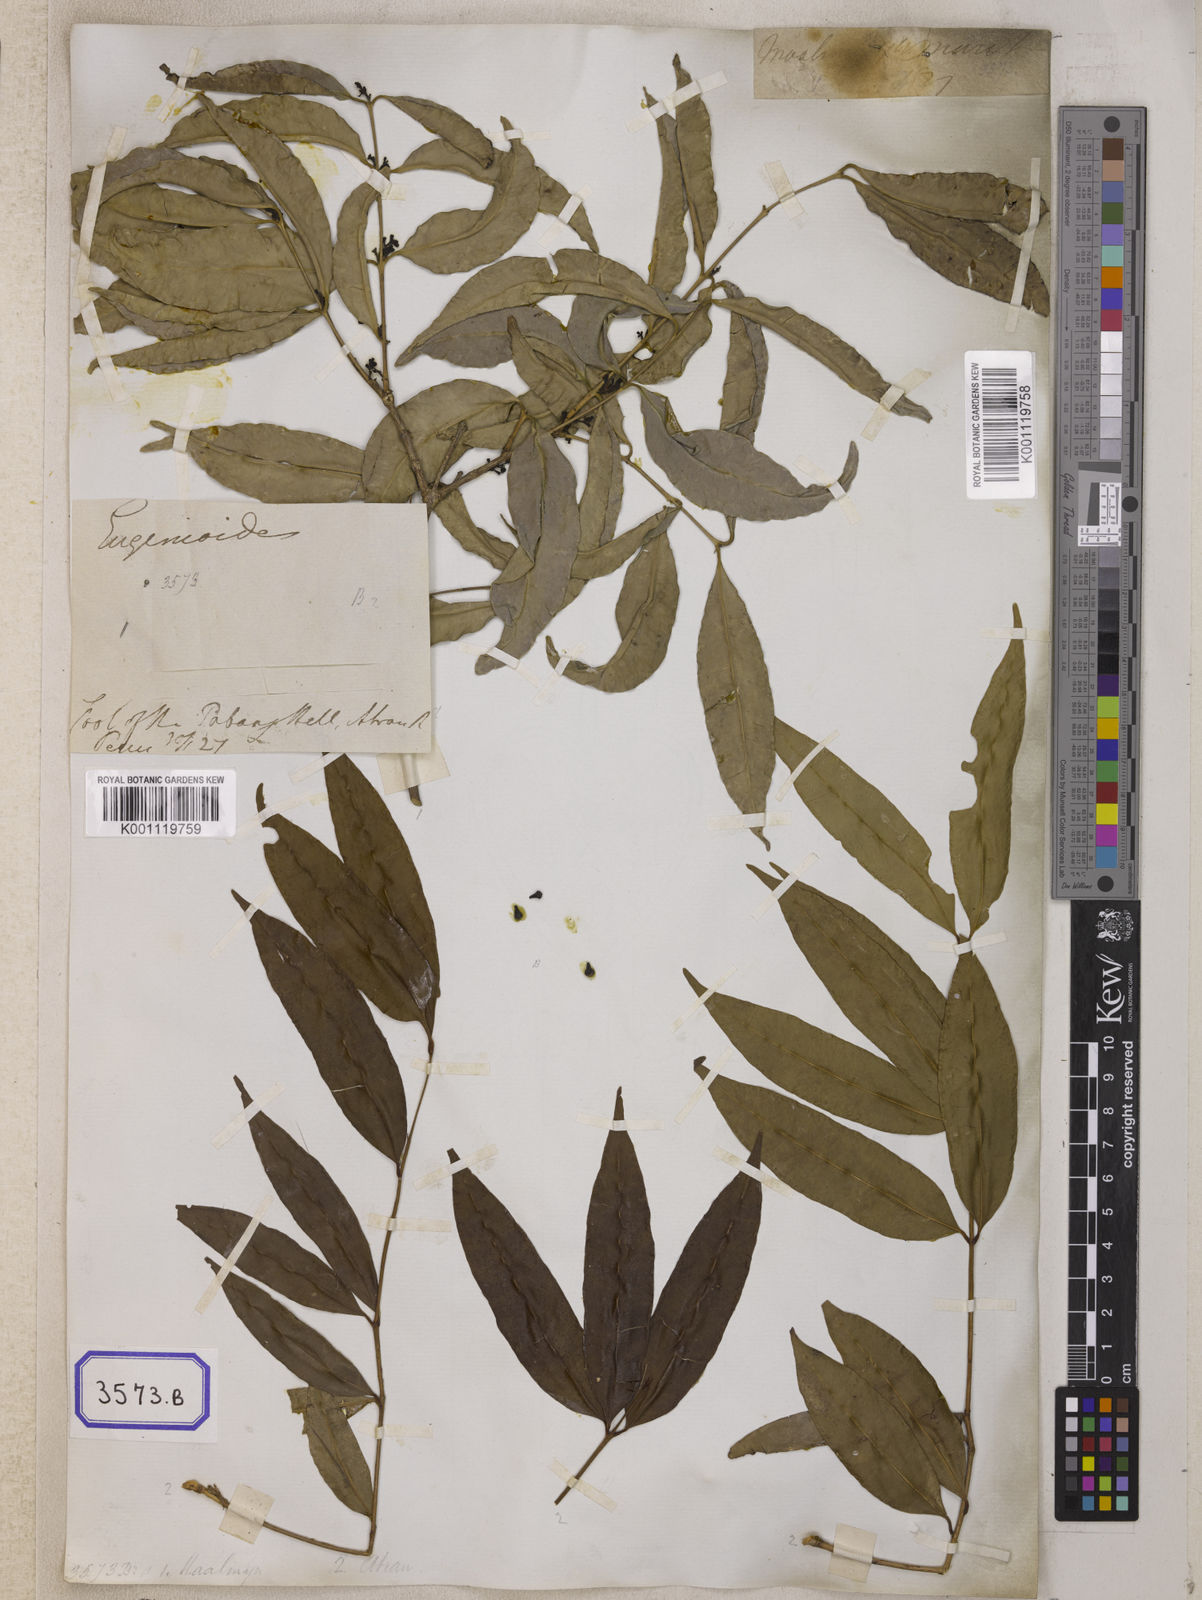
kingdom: Plantae
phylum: Tracheophyta
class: Magnoliopsida
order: Myrtales
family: Myrtaceae
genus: Syzygium
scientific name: Syzygium
